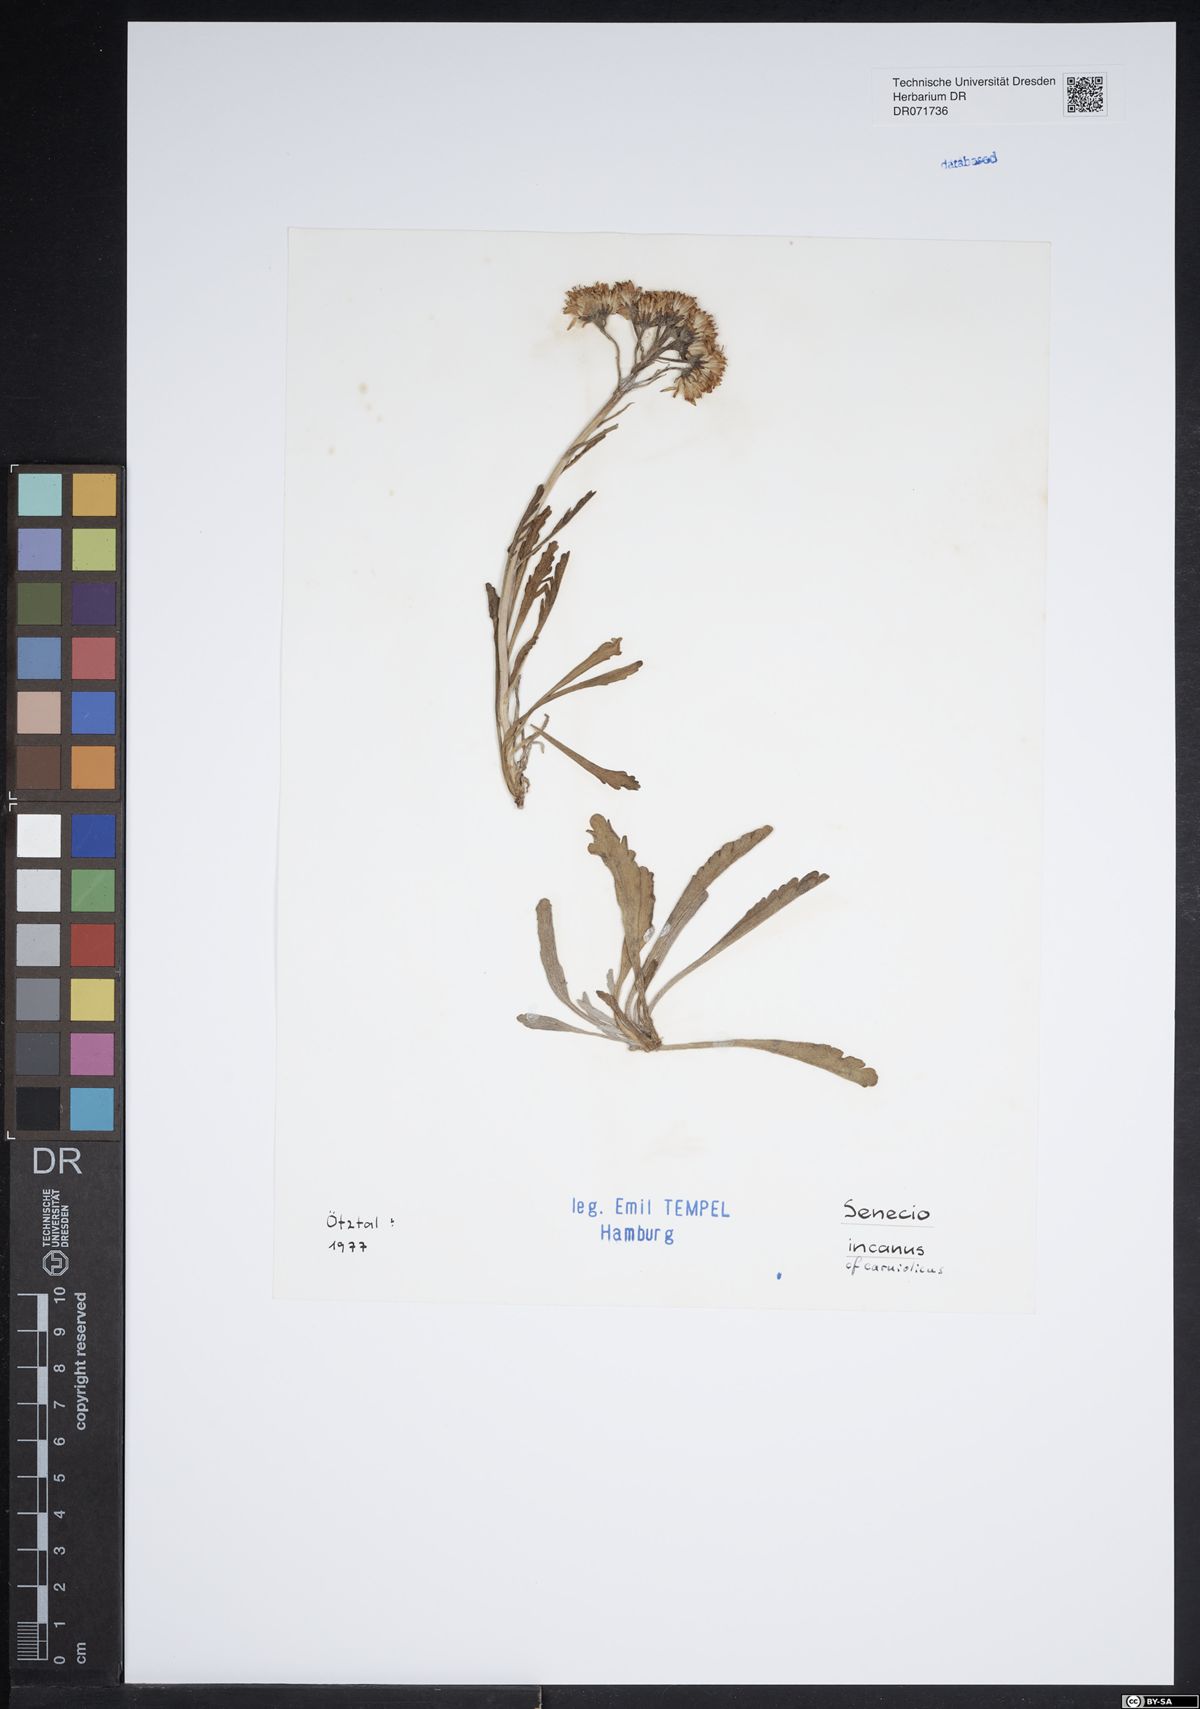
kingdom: Plantae
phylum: Tracheophyta
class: Magnoliopsida
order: Asterales
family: Asteraceae
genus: Jacobaea
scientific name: Jacobaea incana
